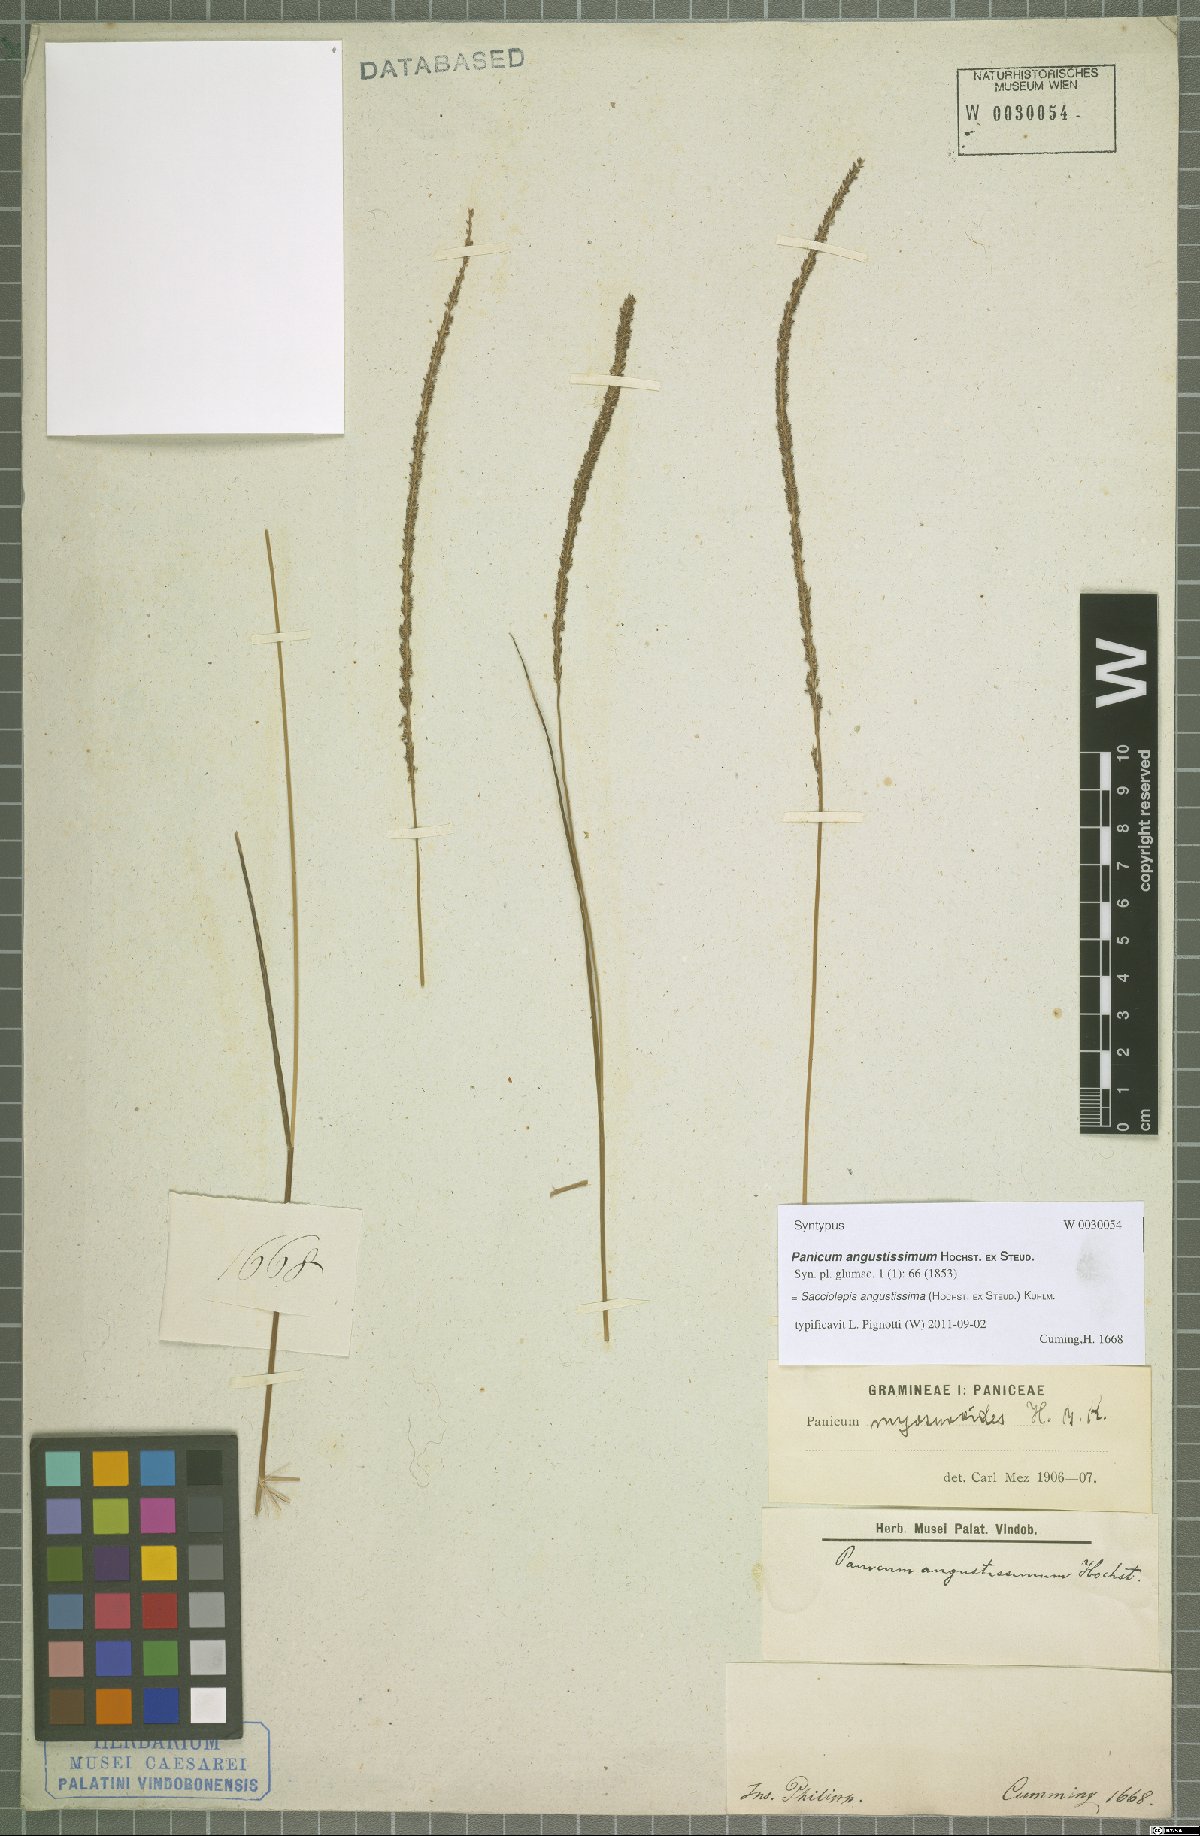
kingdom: Plantae
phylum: Tracheophyta
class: Liliopsida
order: Poales
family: Poaceae
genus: Sacciolepis
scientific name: Sacciolepis angustissima
